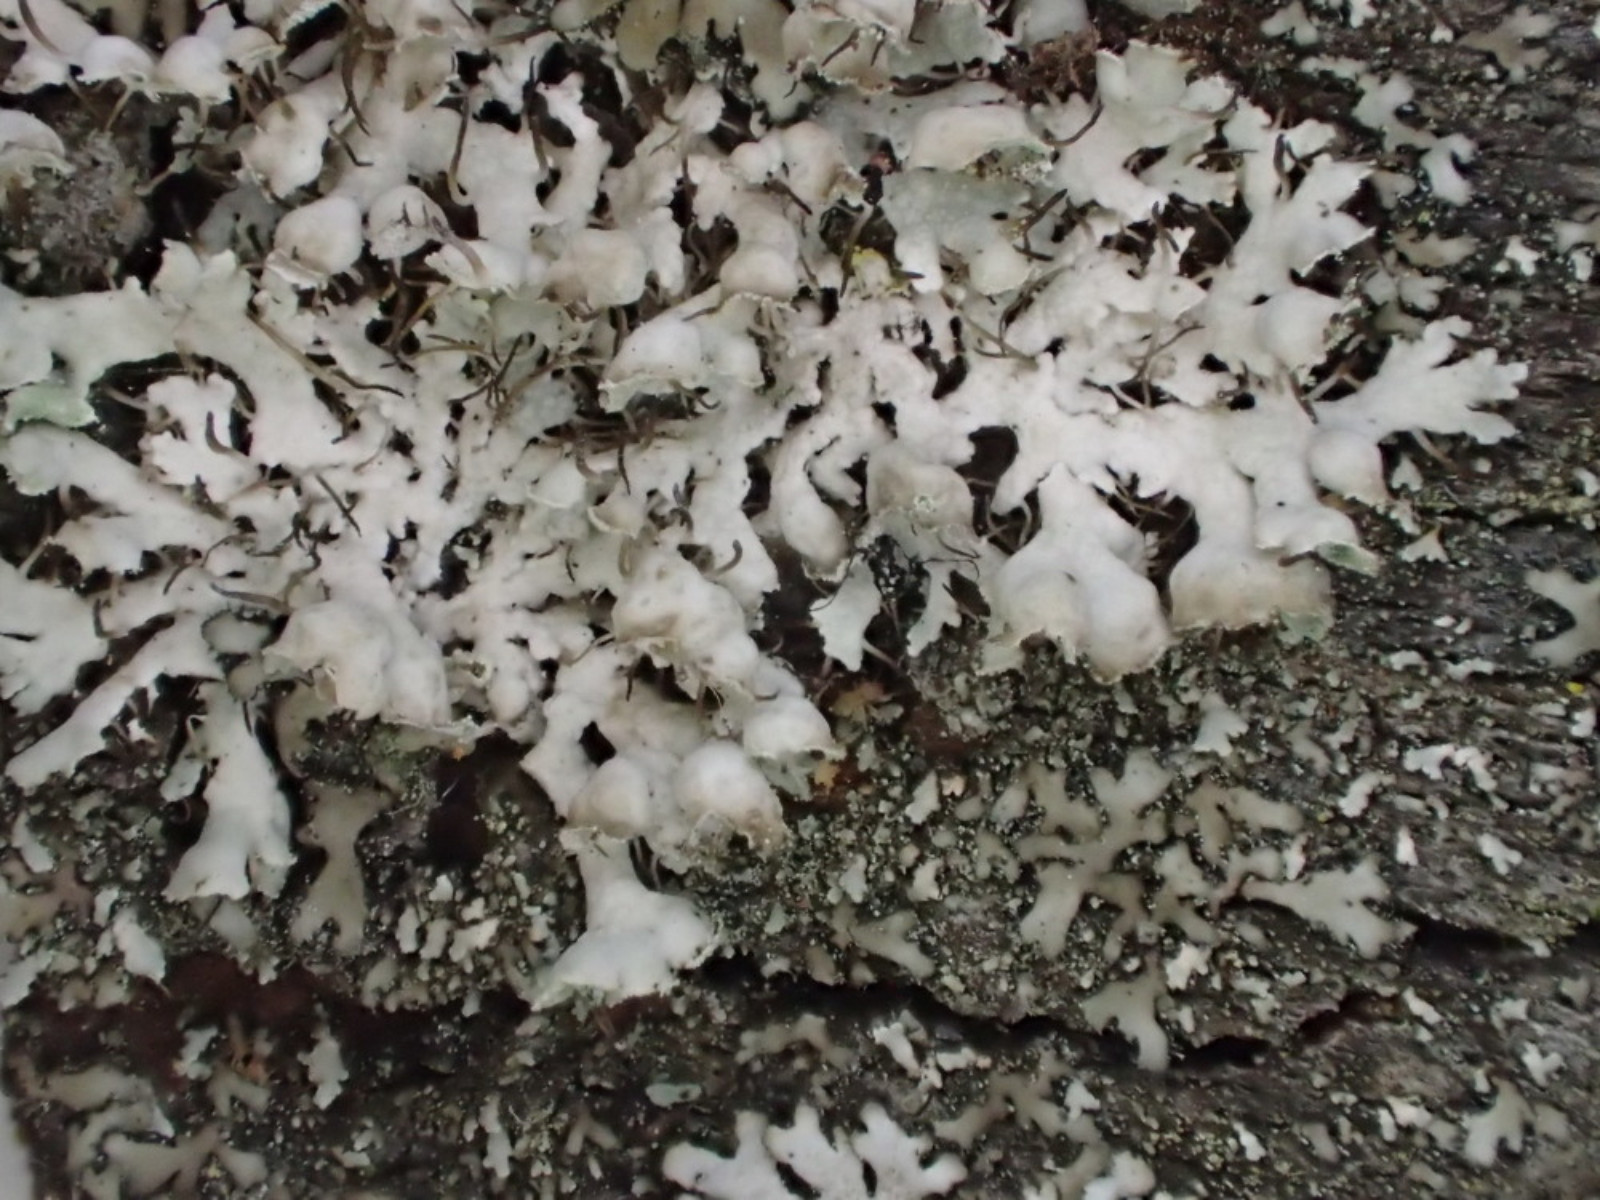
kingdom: Fungi
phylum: Ascomycota
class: Lecanoromycetes
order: Caliciales
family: Physciaceae
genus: Physcia
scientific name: Physcia adscendens
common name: hætte-rosetlav
